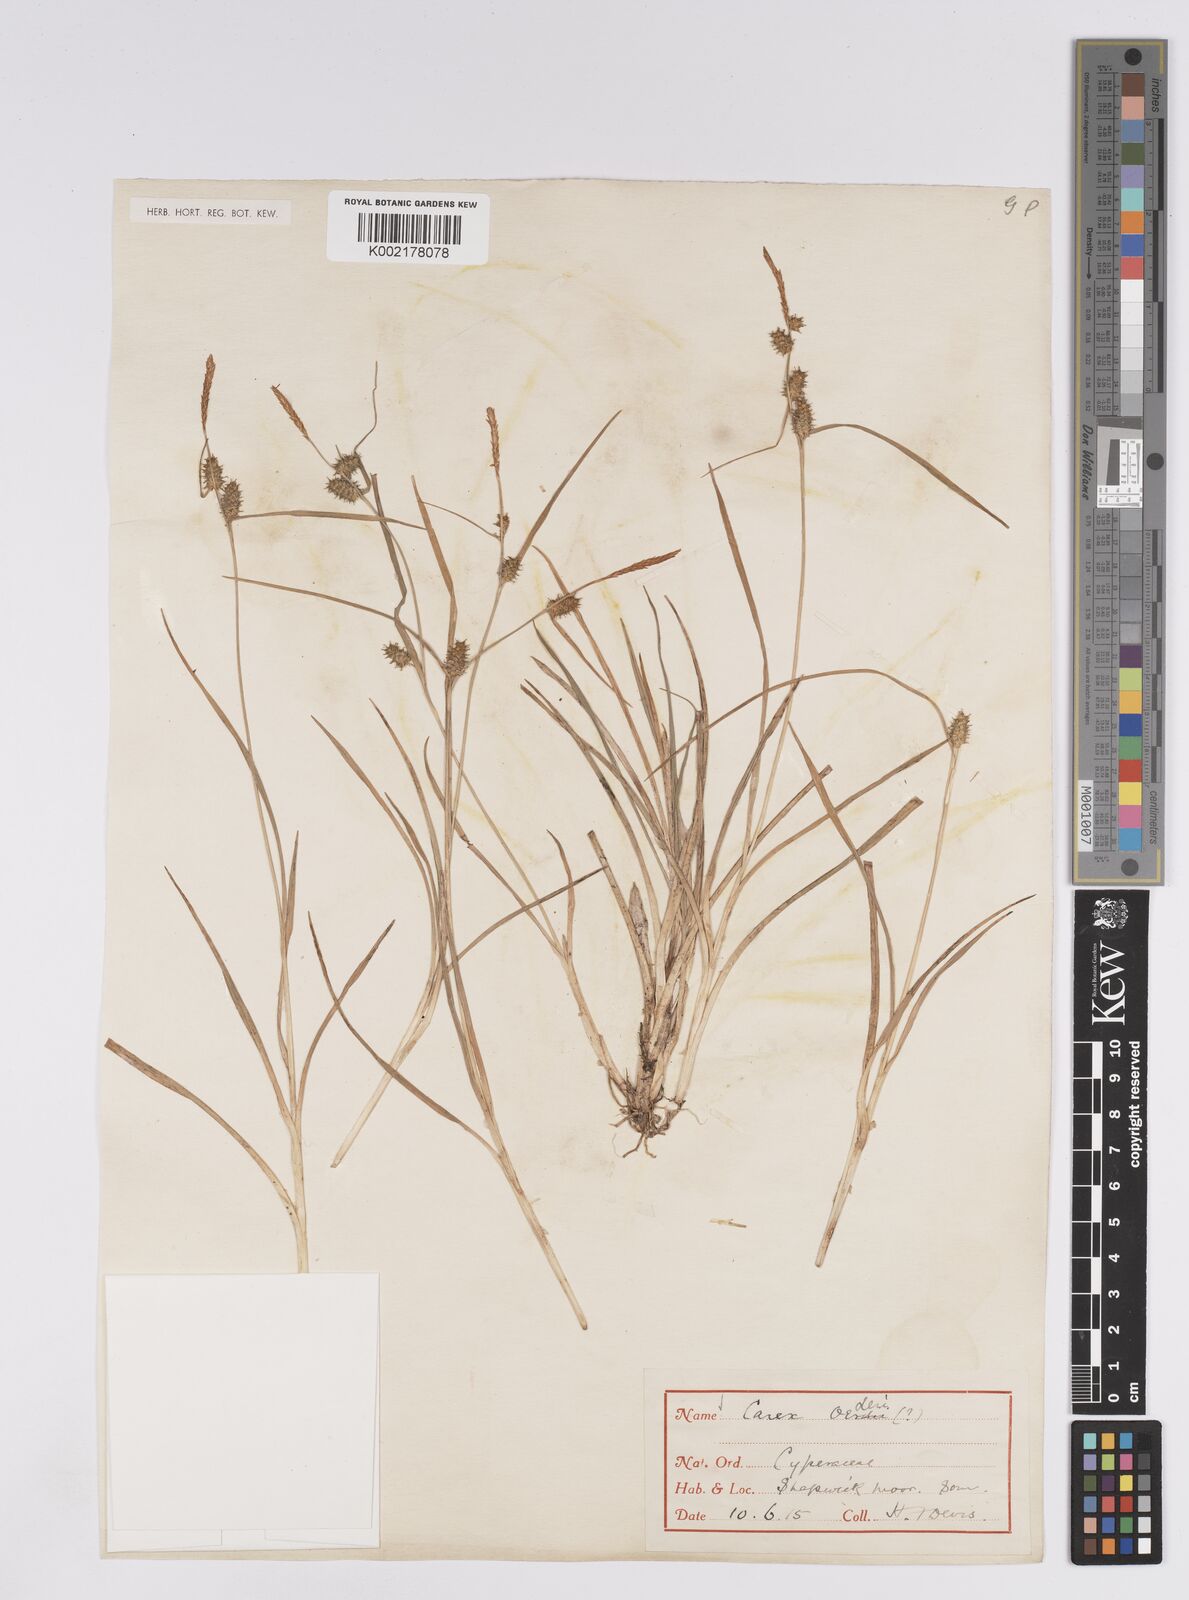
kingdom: Plantae
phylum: Tracheophyta
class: Liliopsida
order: Poales
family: Cyperaceae
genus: Carex
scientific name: Carex demissa
